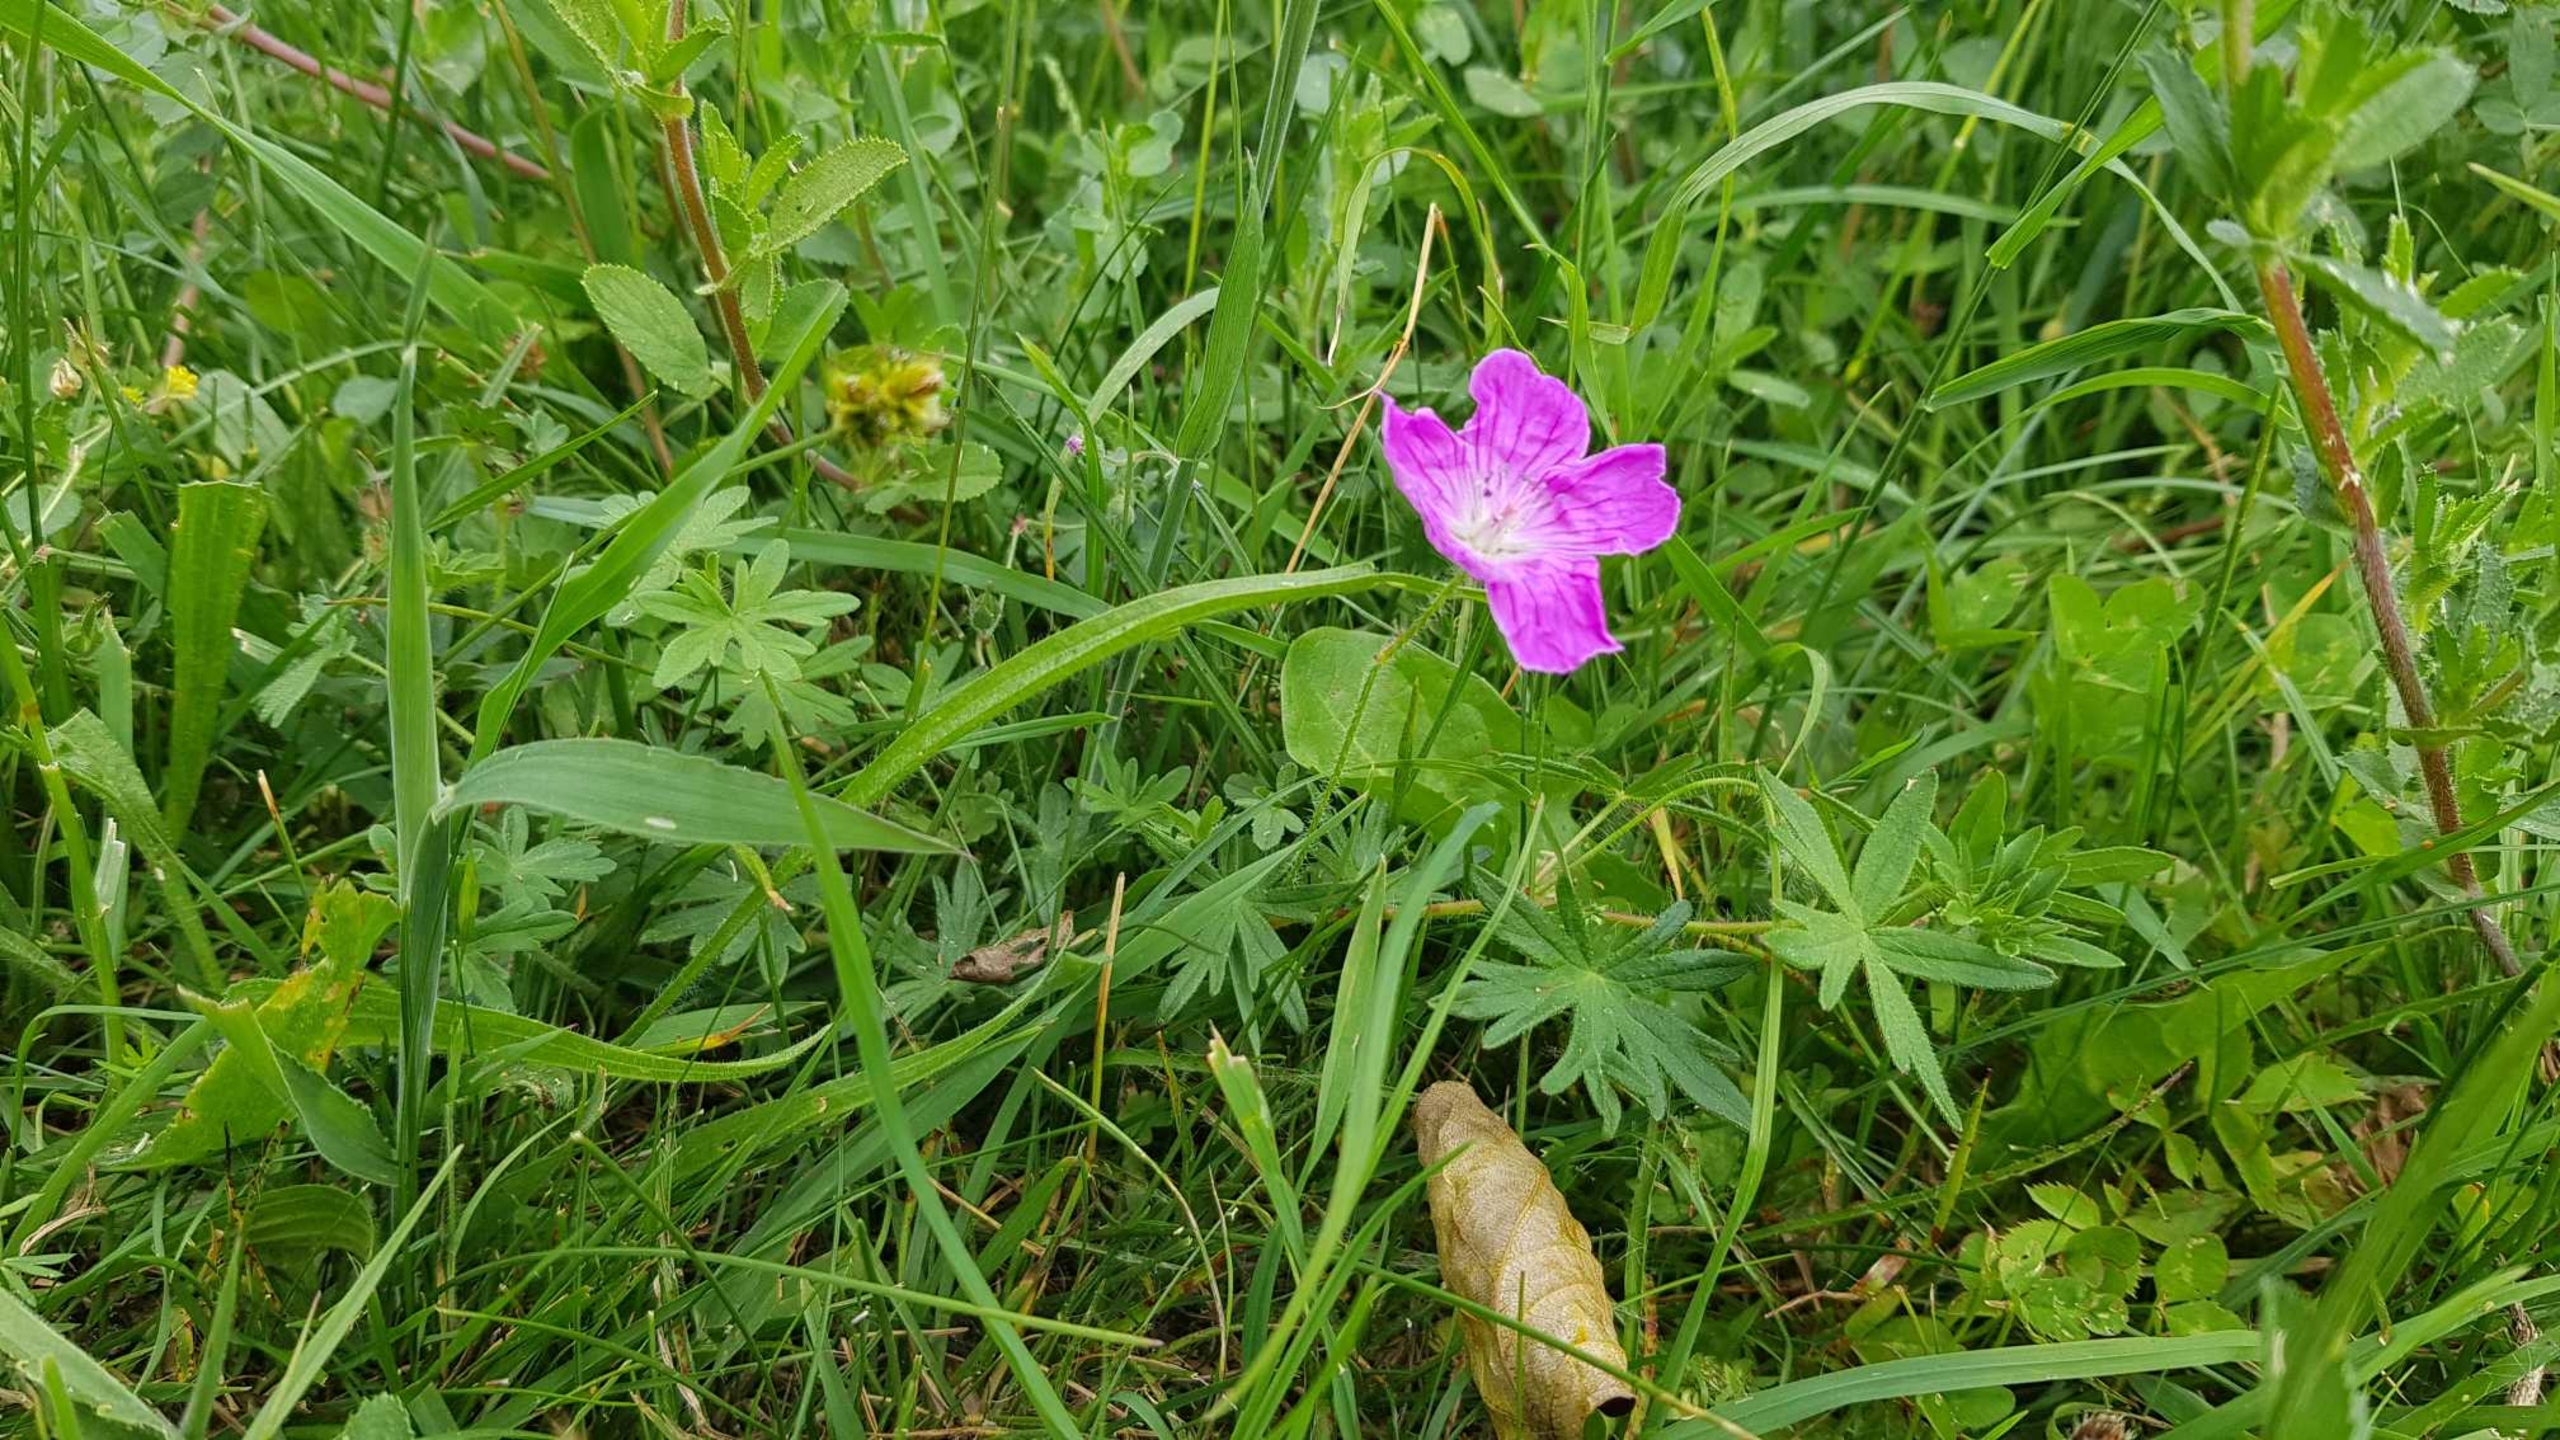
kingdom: Plantae
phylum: Tracheophyta
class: Magnoliopsida
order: Geraniales
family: Geraniaceae
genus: Geranium
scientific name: Geranium sanguineum
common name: Blodrød storkenæb
